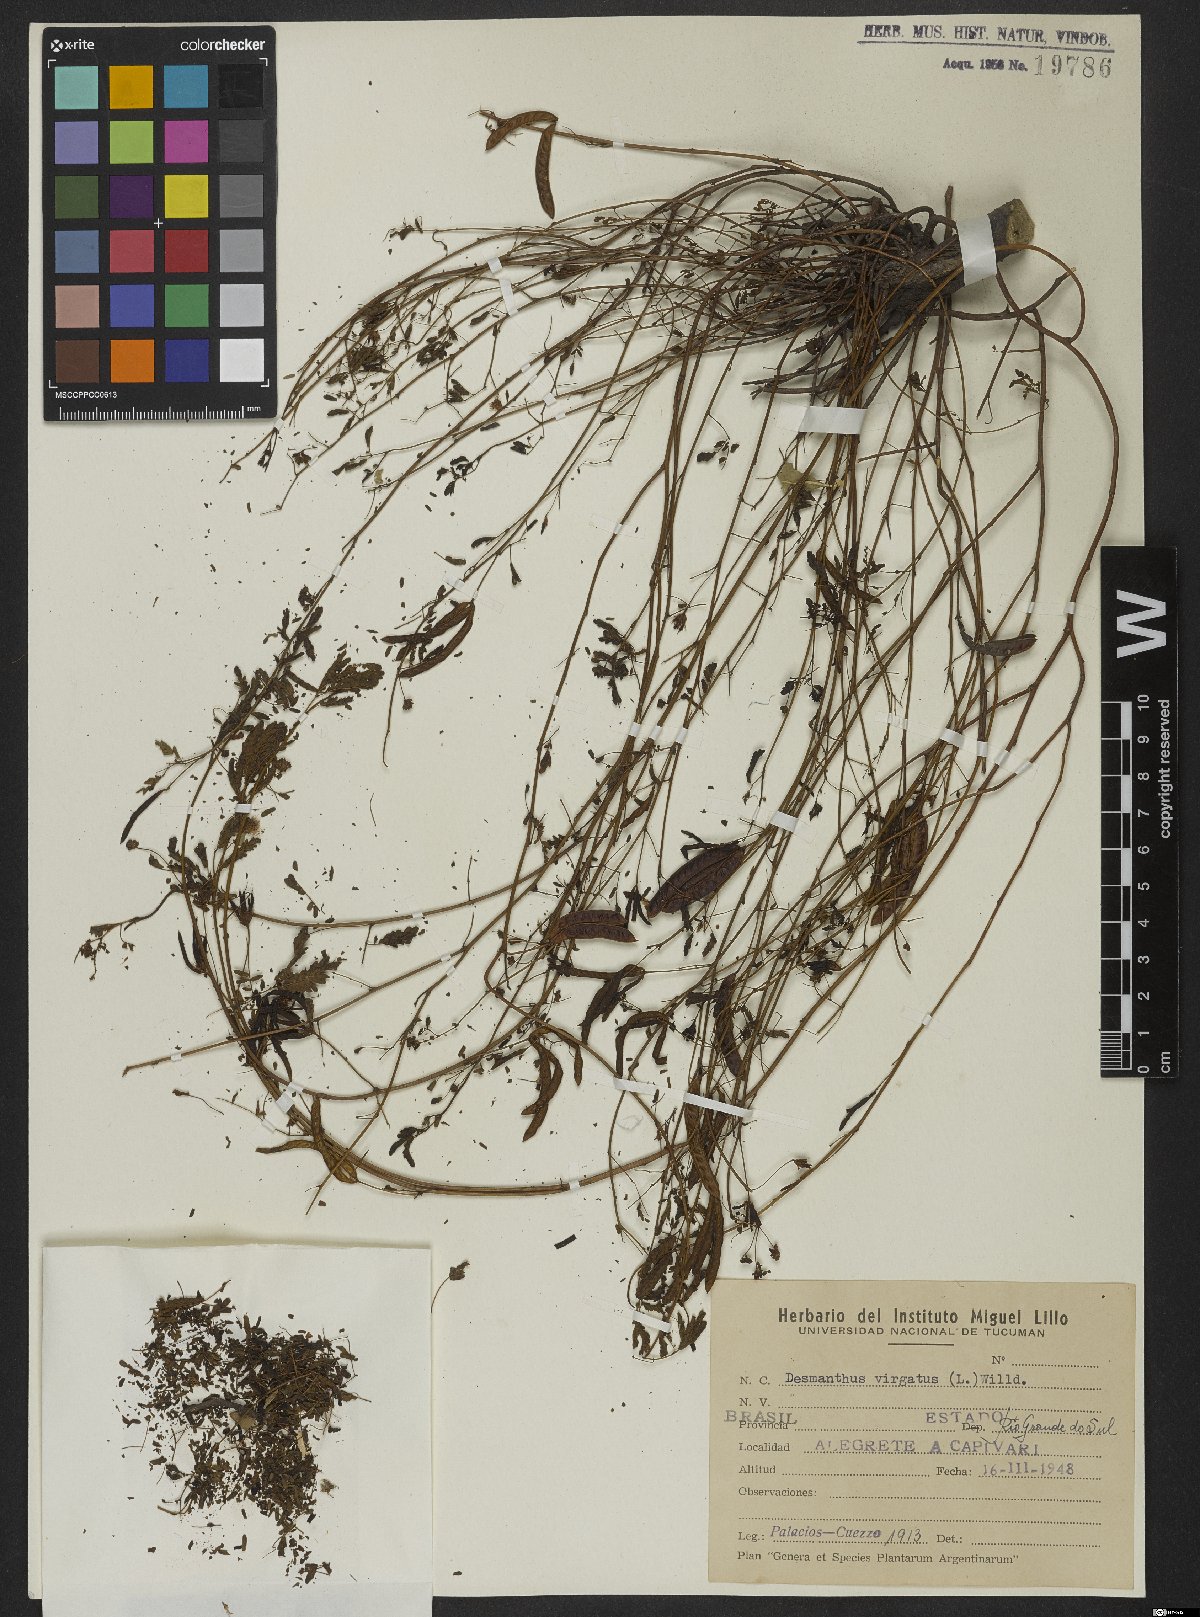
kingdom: Plantae
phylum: Tracheophyta
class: Magnoliopsida
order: Fabales
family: Fabaceae
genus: Desmanthus
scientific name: Desmanthus virgatus
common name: Wild tantan
